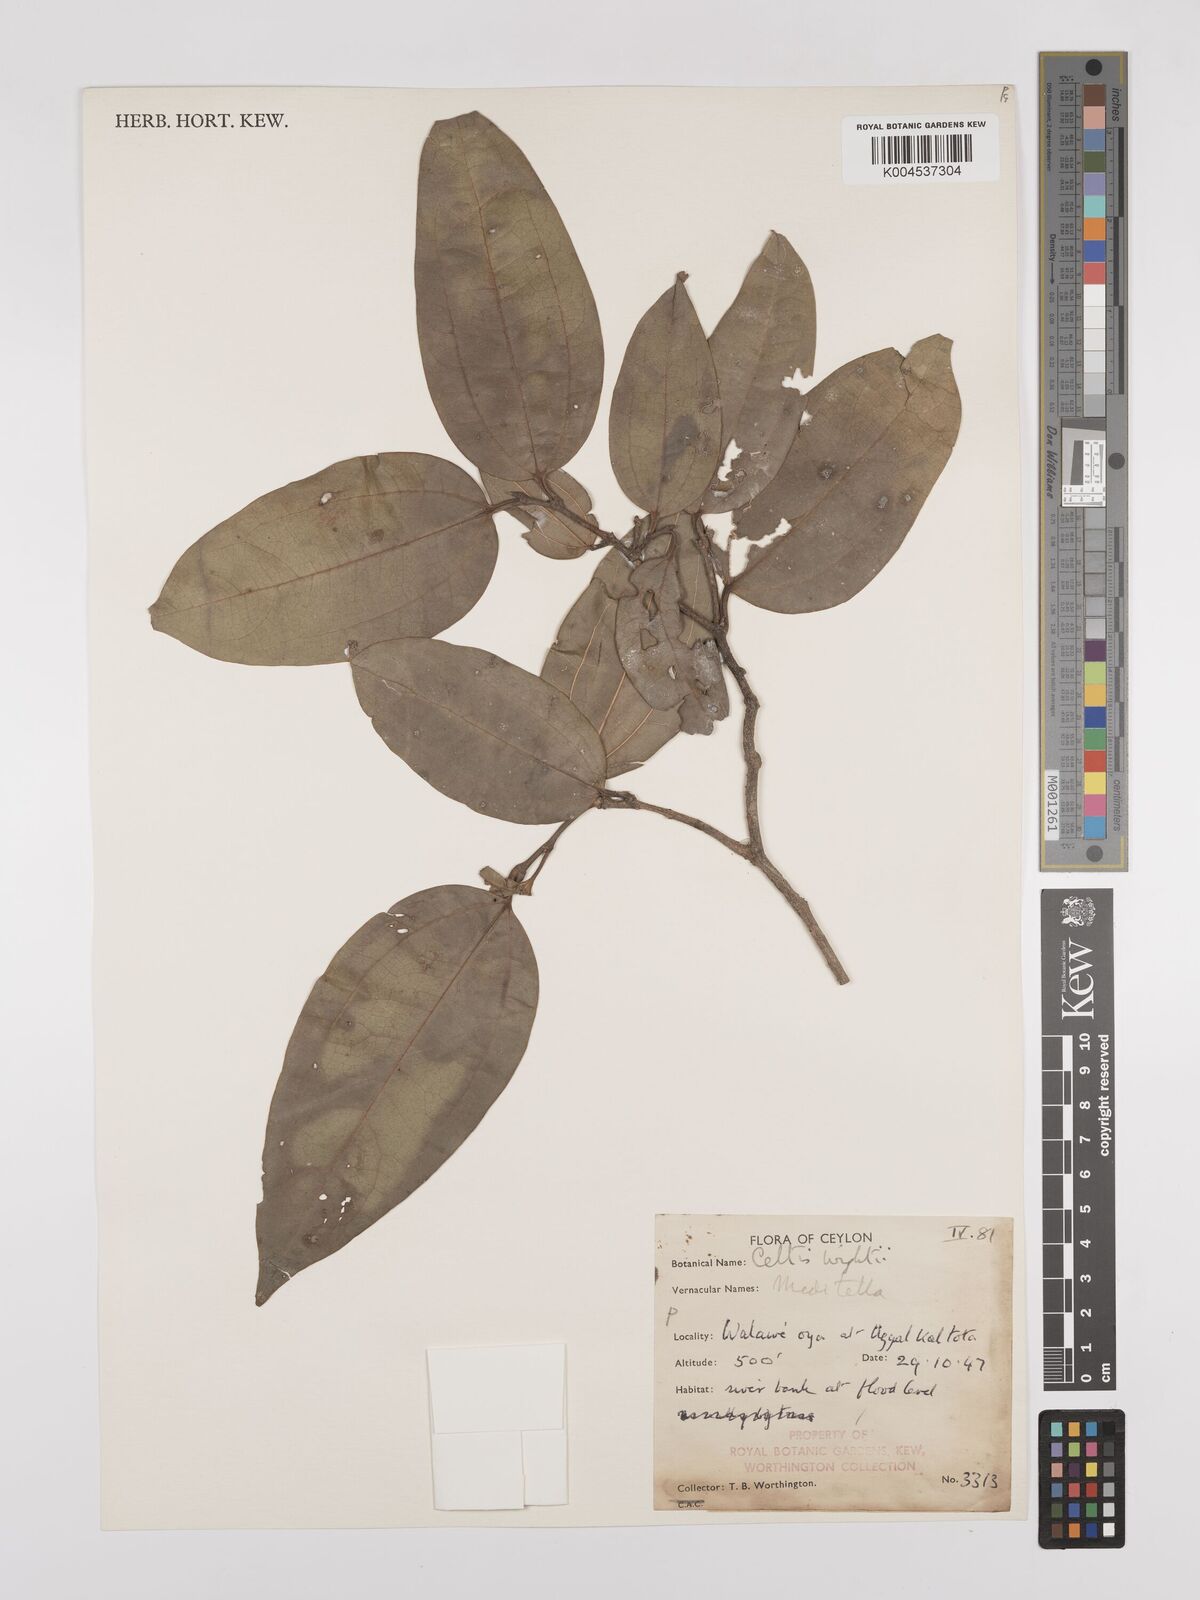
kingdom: Plantae
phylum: Tracheophyta
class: Magnoliopsida
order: Rosales
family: Cannabaceae
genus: Celtis
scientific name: Celtis philippensis
